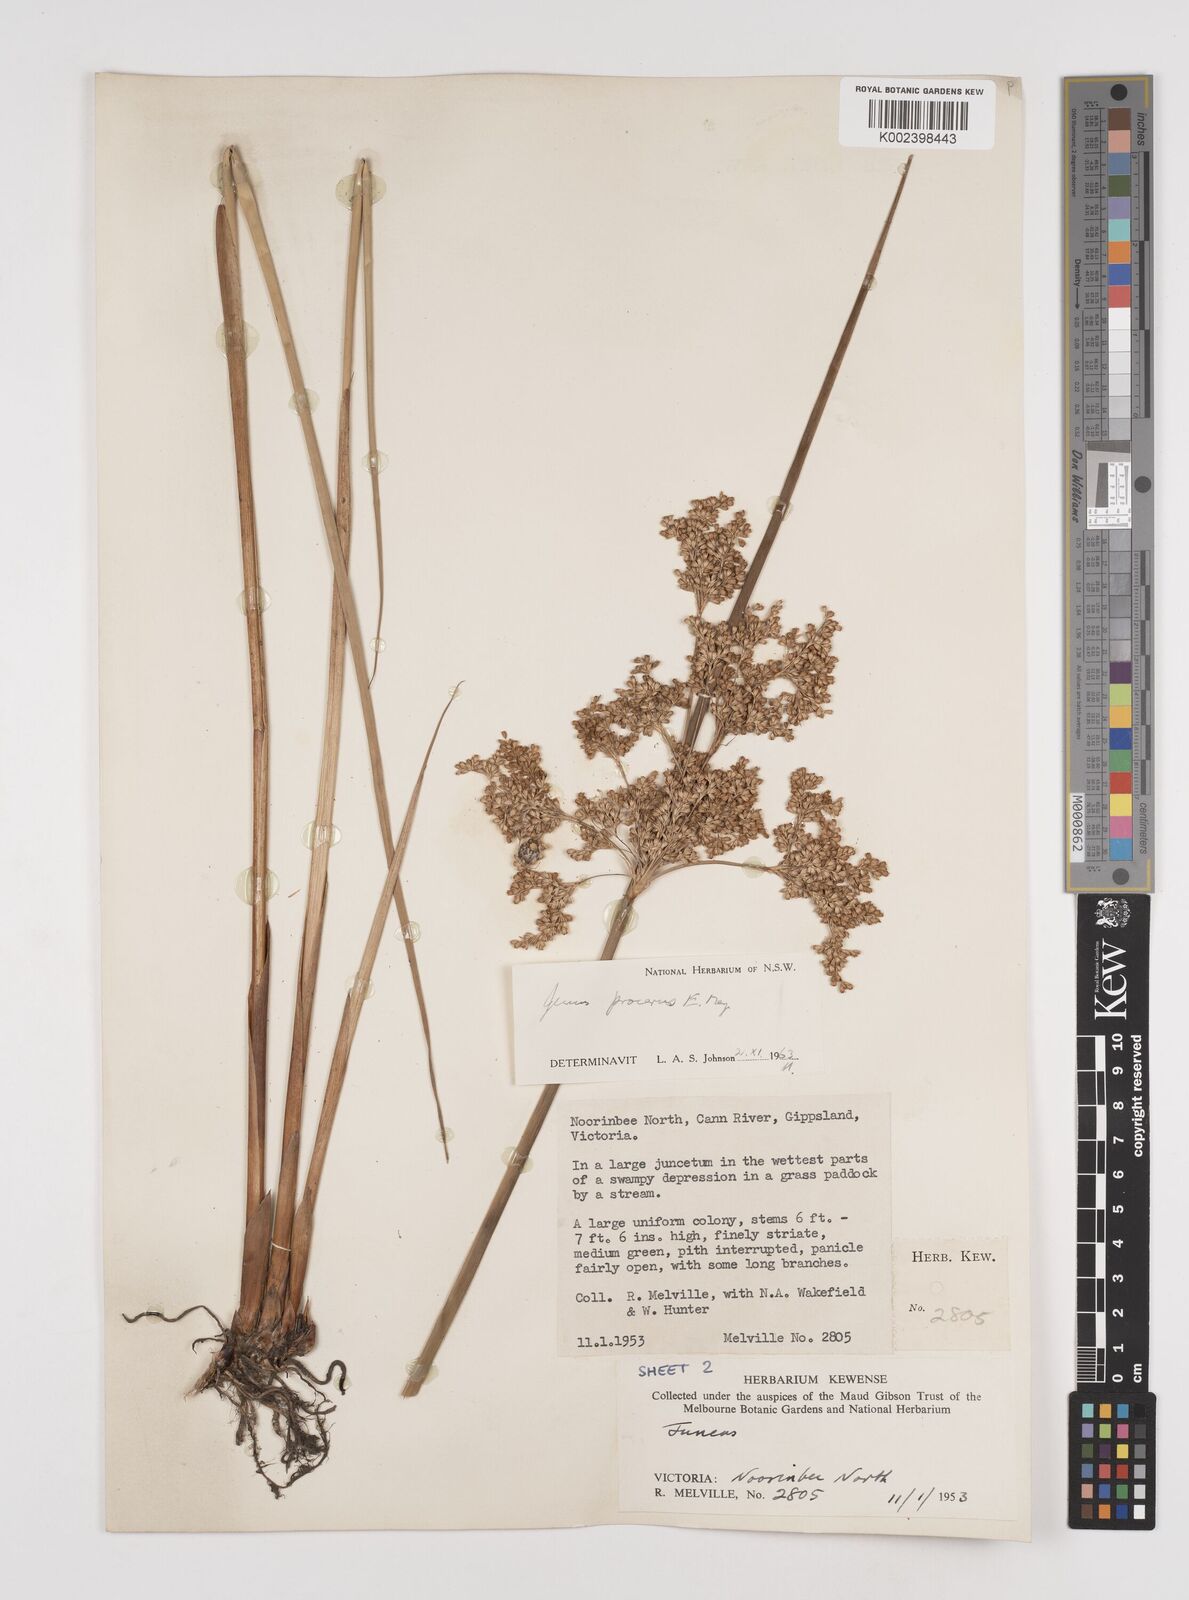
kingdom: Plantae
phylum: Tracheophyta
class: Liliopsida
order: Poales
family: Juncaceae
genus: Juncus
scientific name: Juncus procerus
